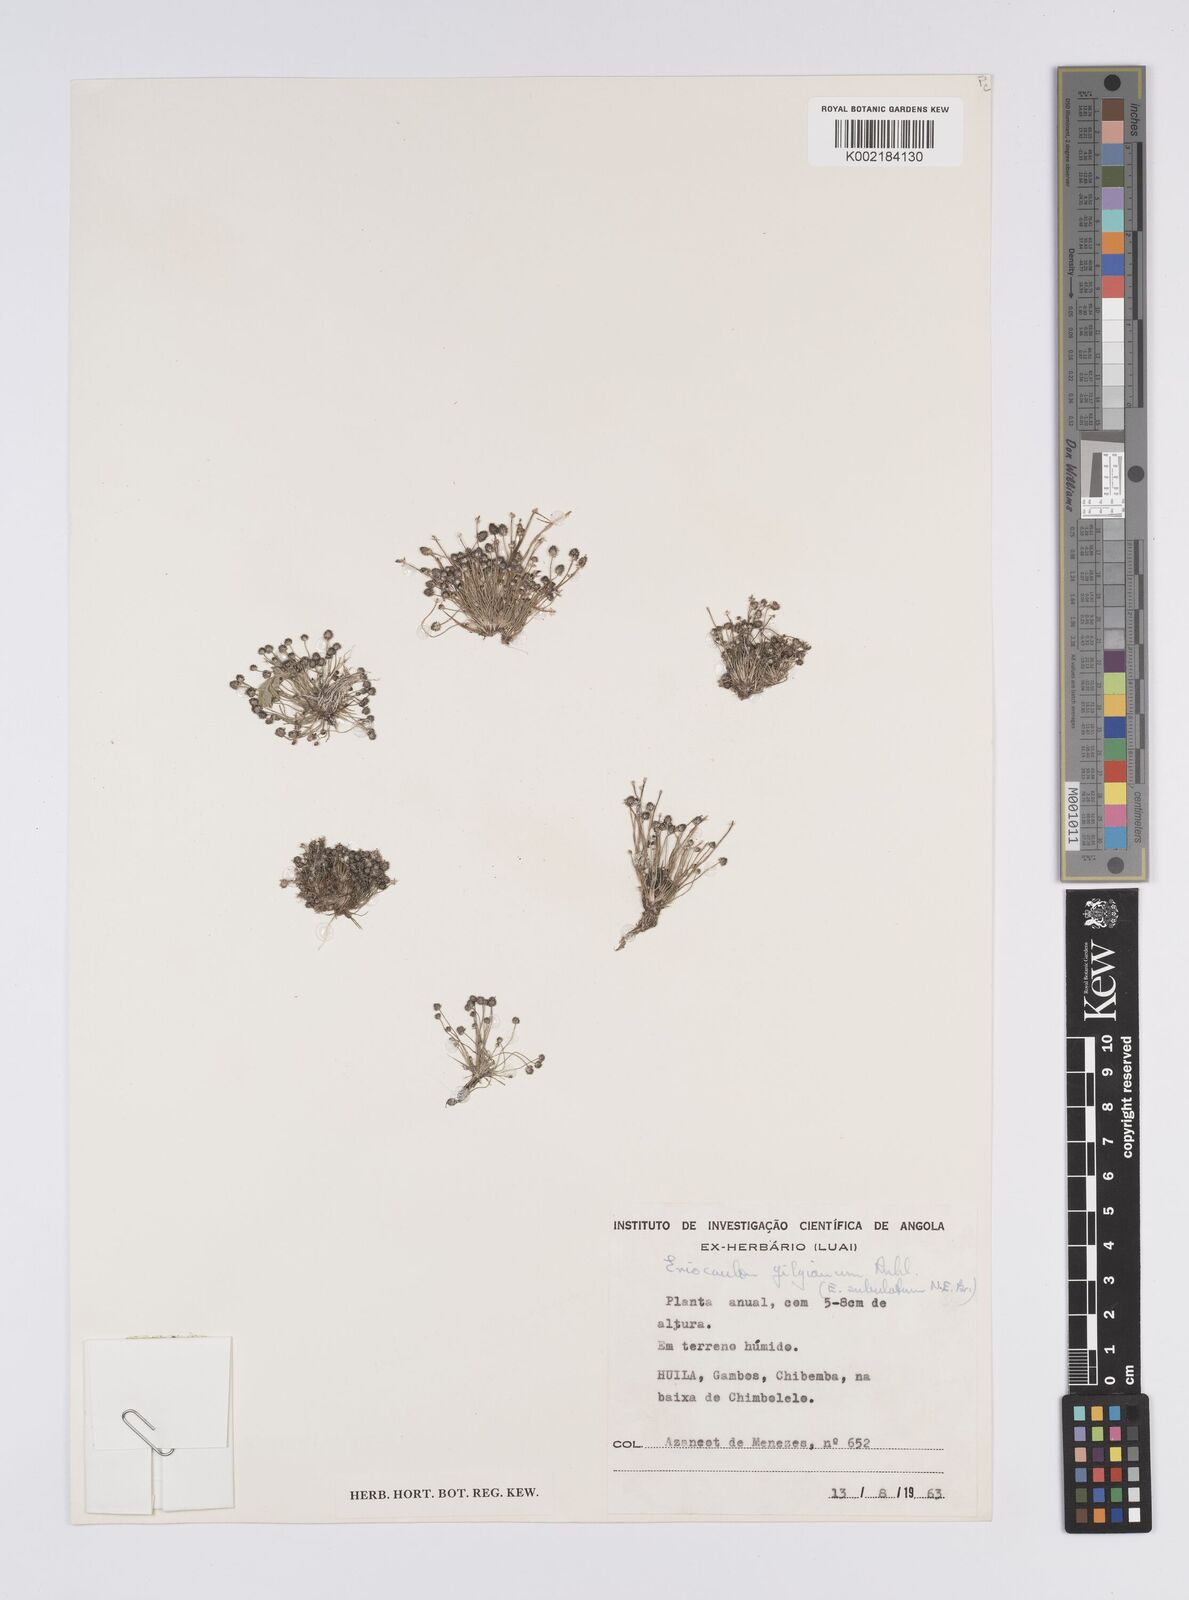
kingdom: Plantae
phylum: Tracheophyta
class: Liliopsida
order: Poales
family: Eriocaulaceae
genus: Eriocaulon
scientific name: Eriocaulon welwitschii
